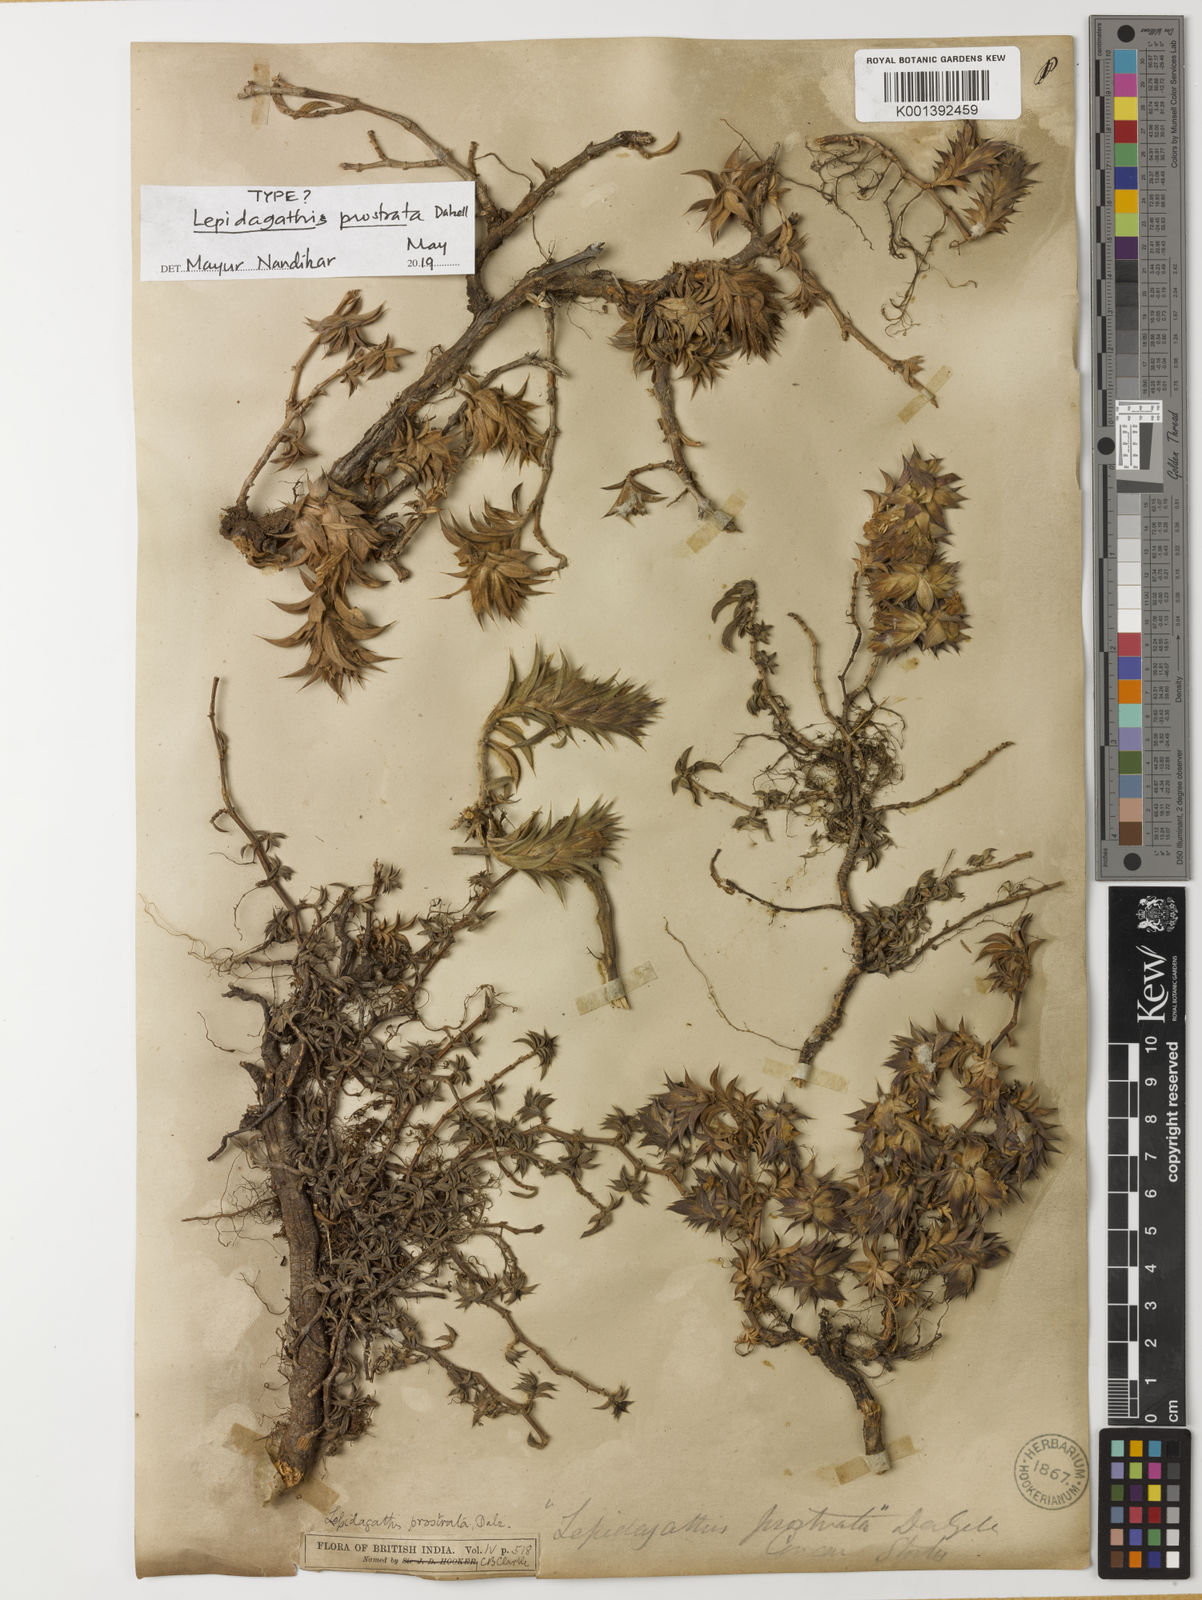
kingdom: Plantae
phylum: Tracheophyta
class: Magnoliopsida
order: Lamiales
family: Acanthaceae
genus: Lepidagathis
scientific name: Lepidagathis prostrata
